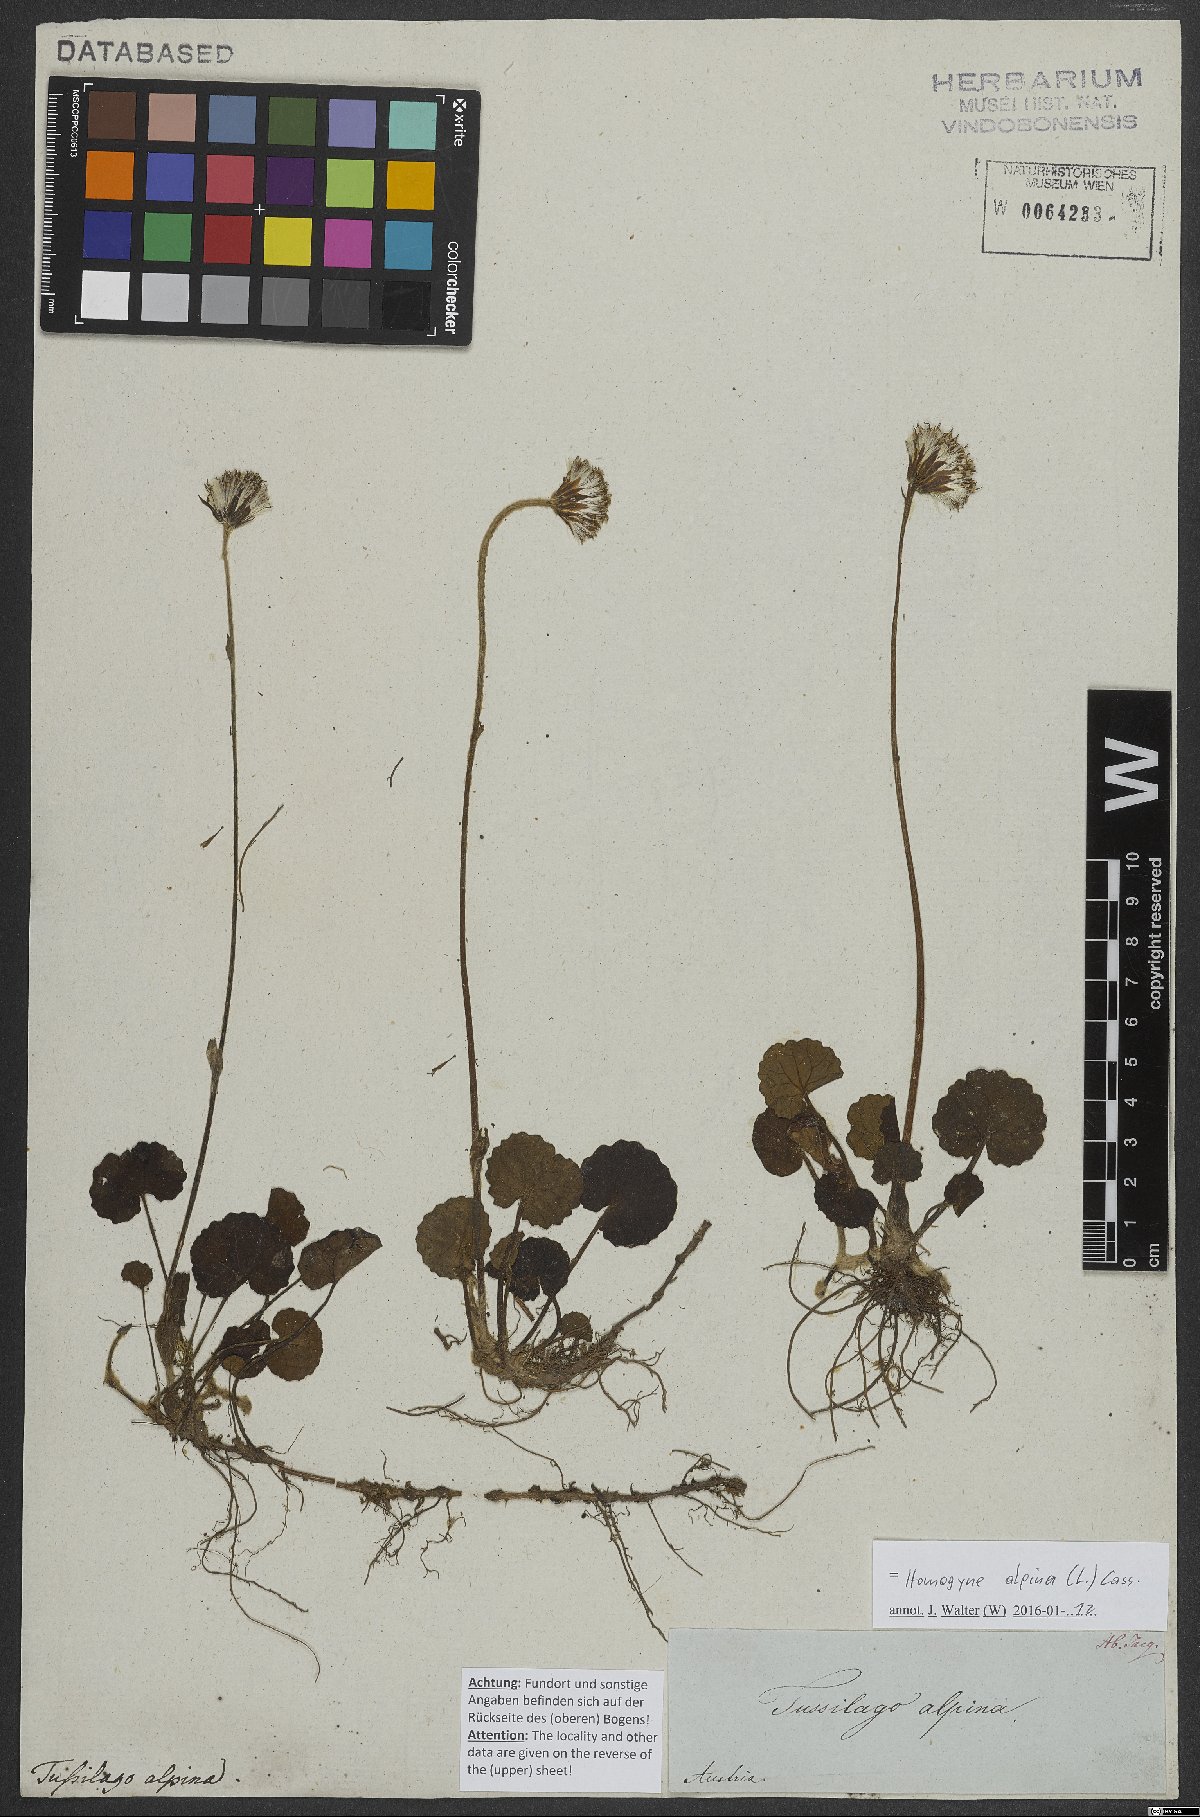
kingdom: Plantae
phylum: Tracheophyta
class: Magnoliopsida
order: Asterales
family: Asteraceae
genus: Homogyne
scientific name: Homogyne alpina
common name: Purple colt's-foot
